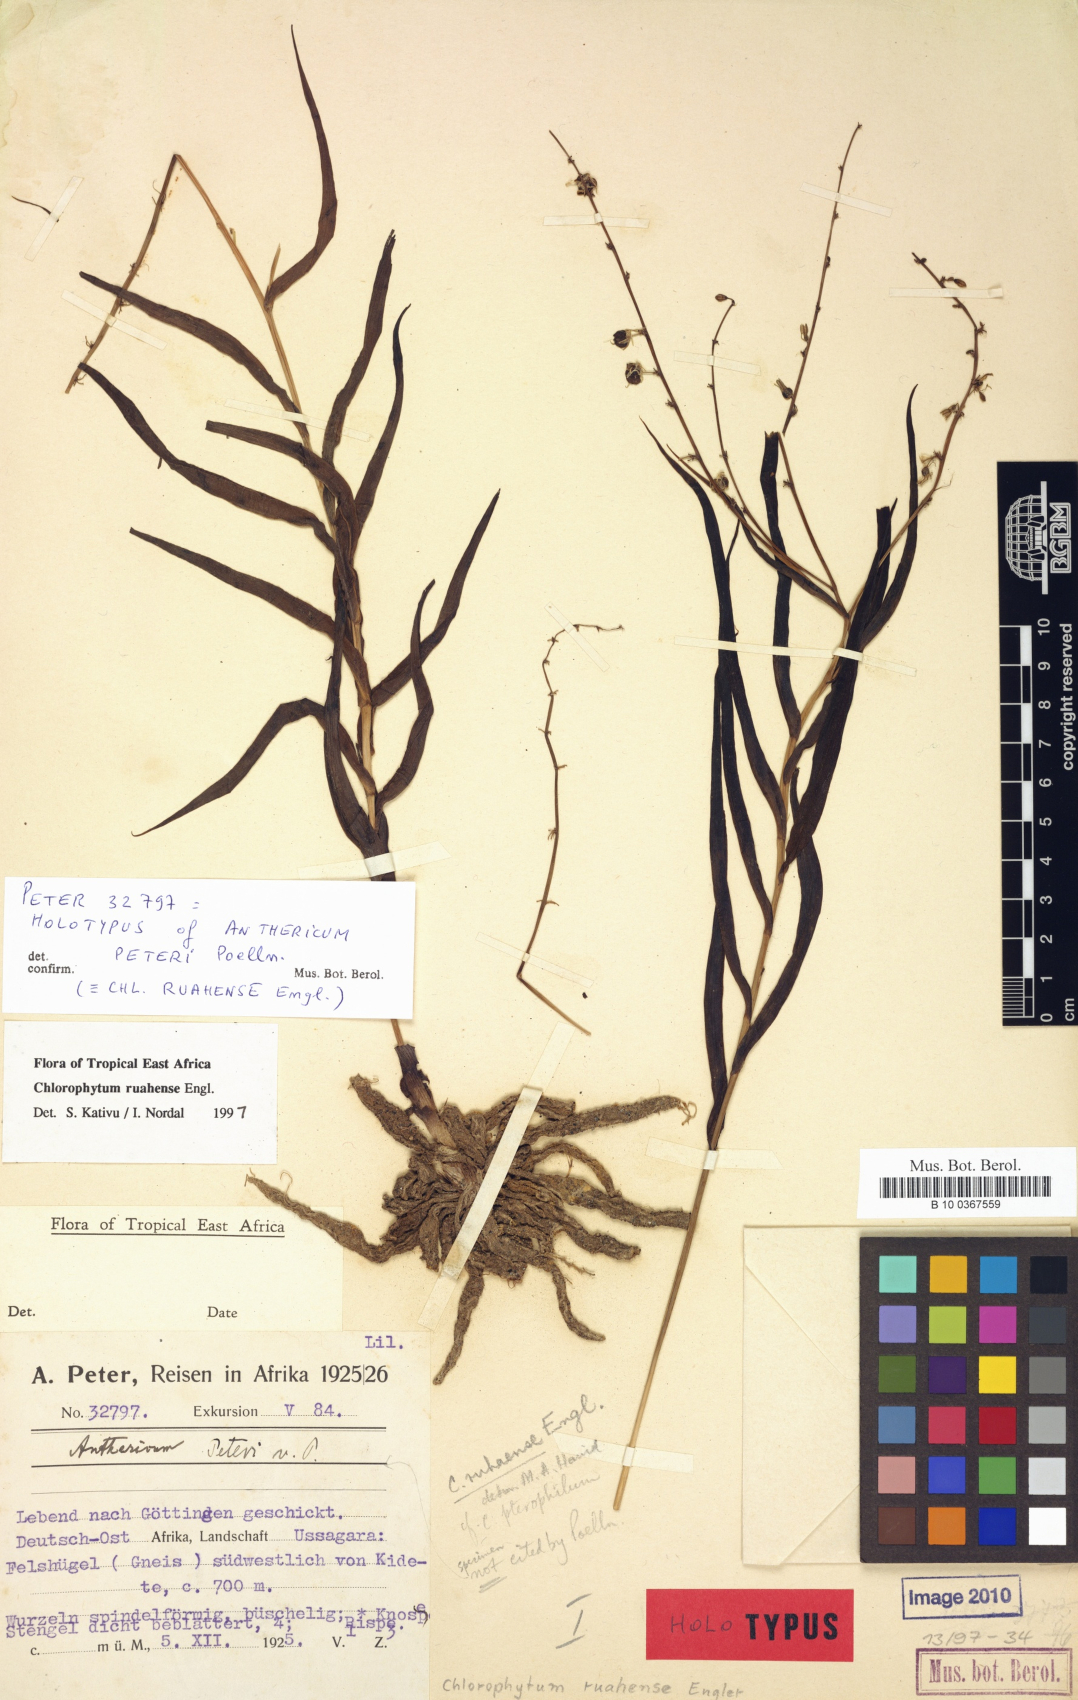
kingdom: Plantae
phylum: Tracheophyta
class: Liliopsida
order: Asparagales
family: Asparagaceae
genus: Chlorophytum
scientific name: Chlorophytum ruahense
